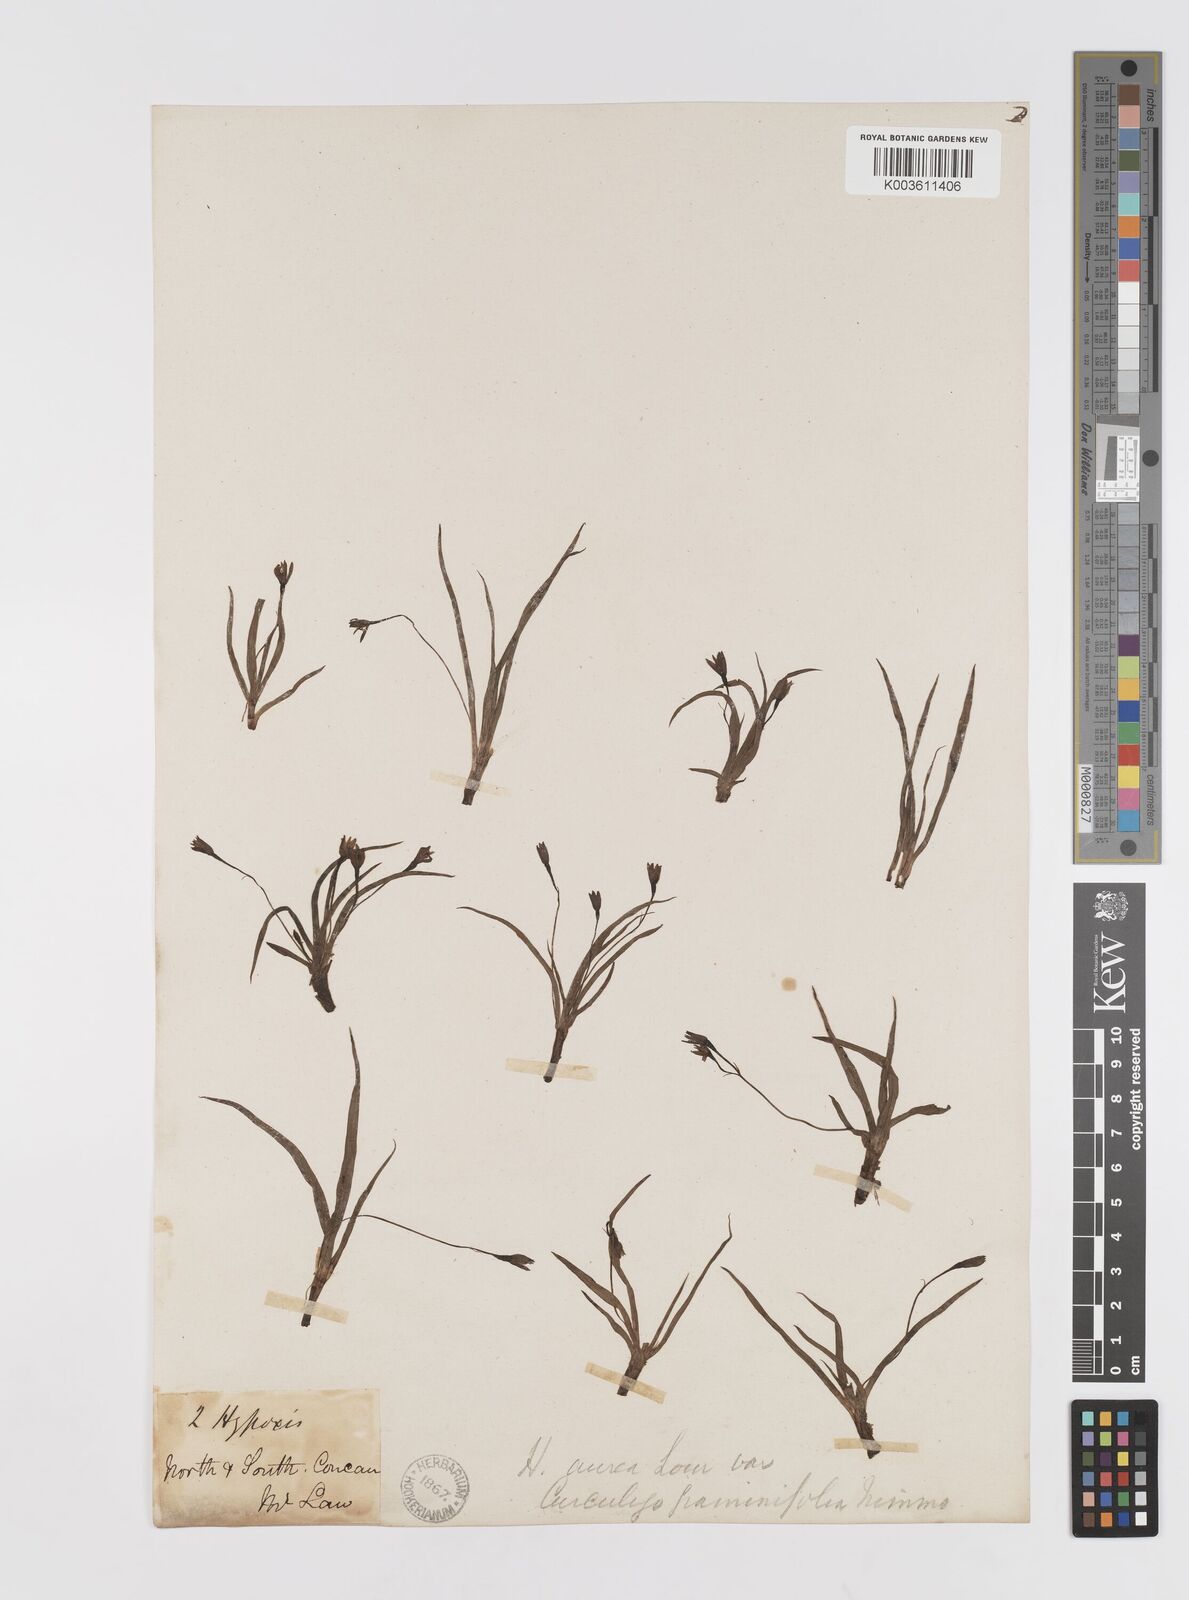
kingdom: Plantae
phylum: Tracheophyta
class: Liliopsida
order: Asparagales
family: Hypoxidaceae
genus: Hypoxis
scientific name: Hypoxis aurea
